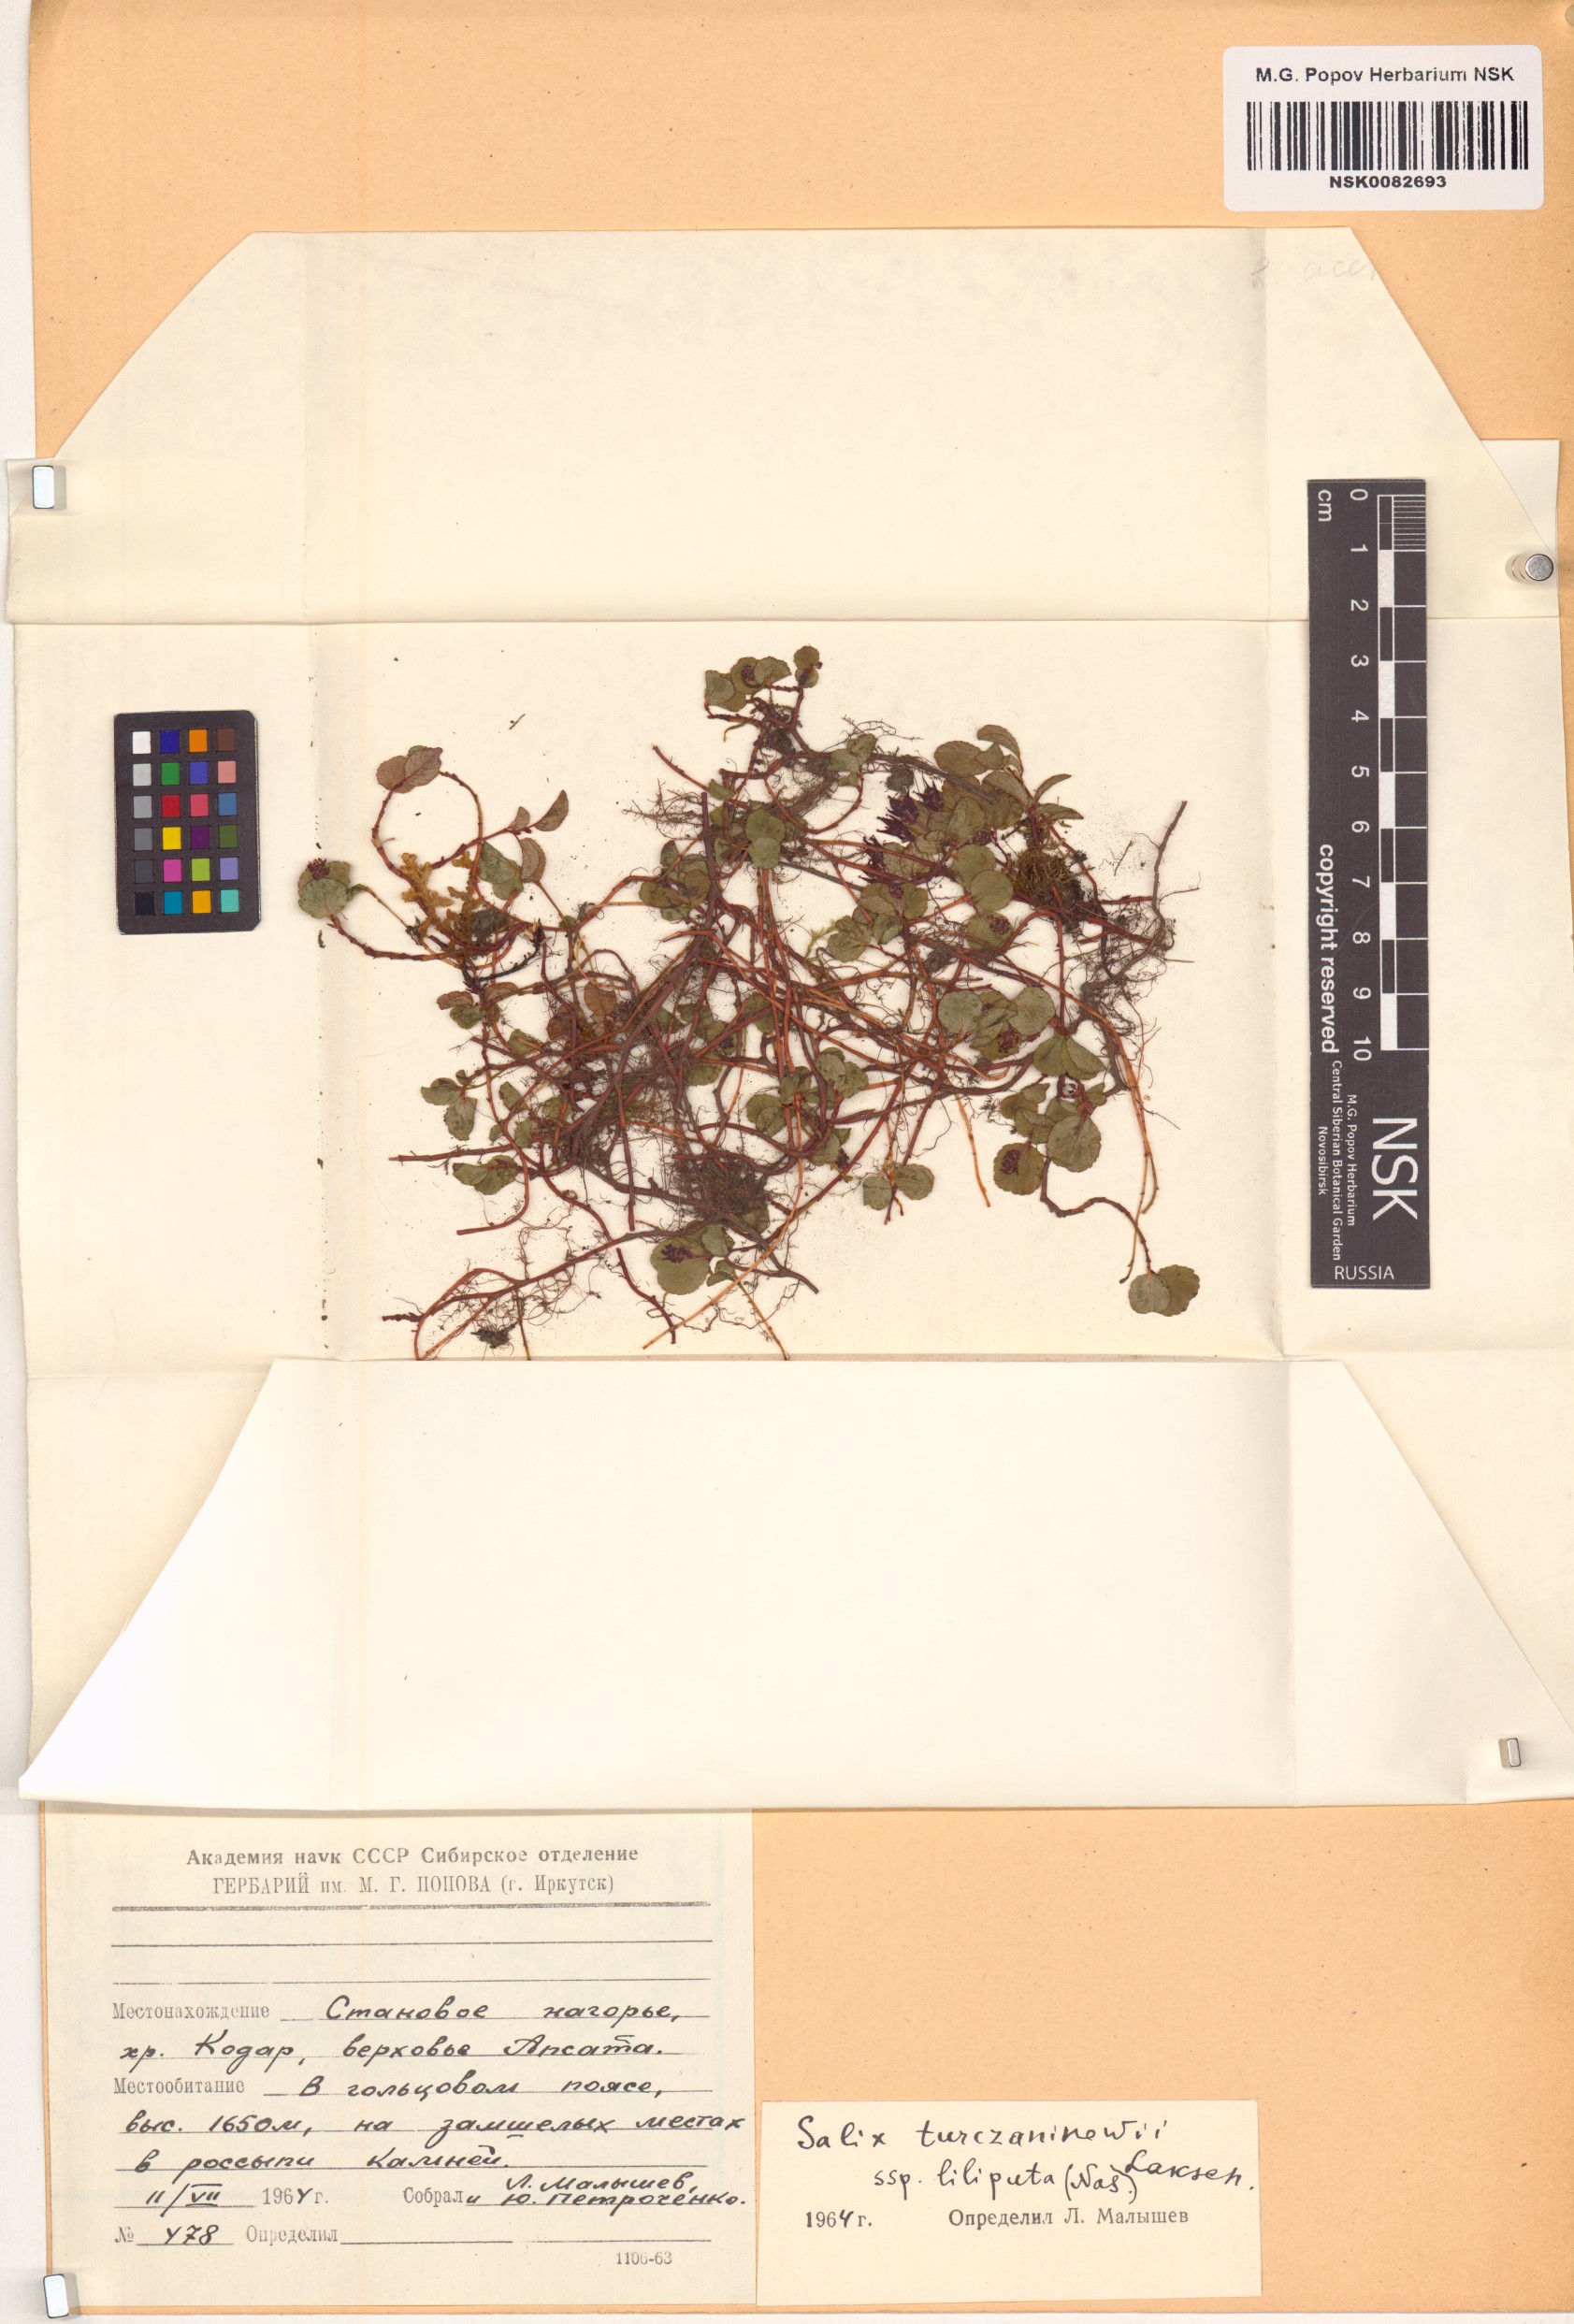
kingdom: Plantae
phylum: Tracheophyta
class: Magnoliopsida
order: Malpighiales
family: Salicaceae
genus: Salix
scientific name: Salix turczaninowii
